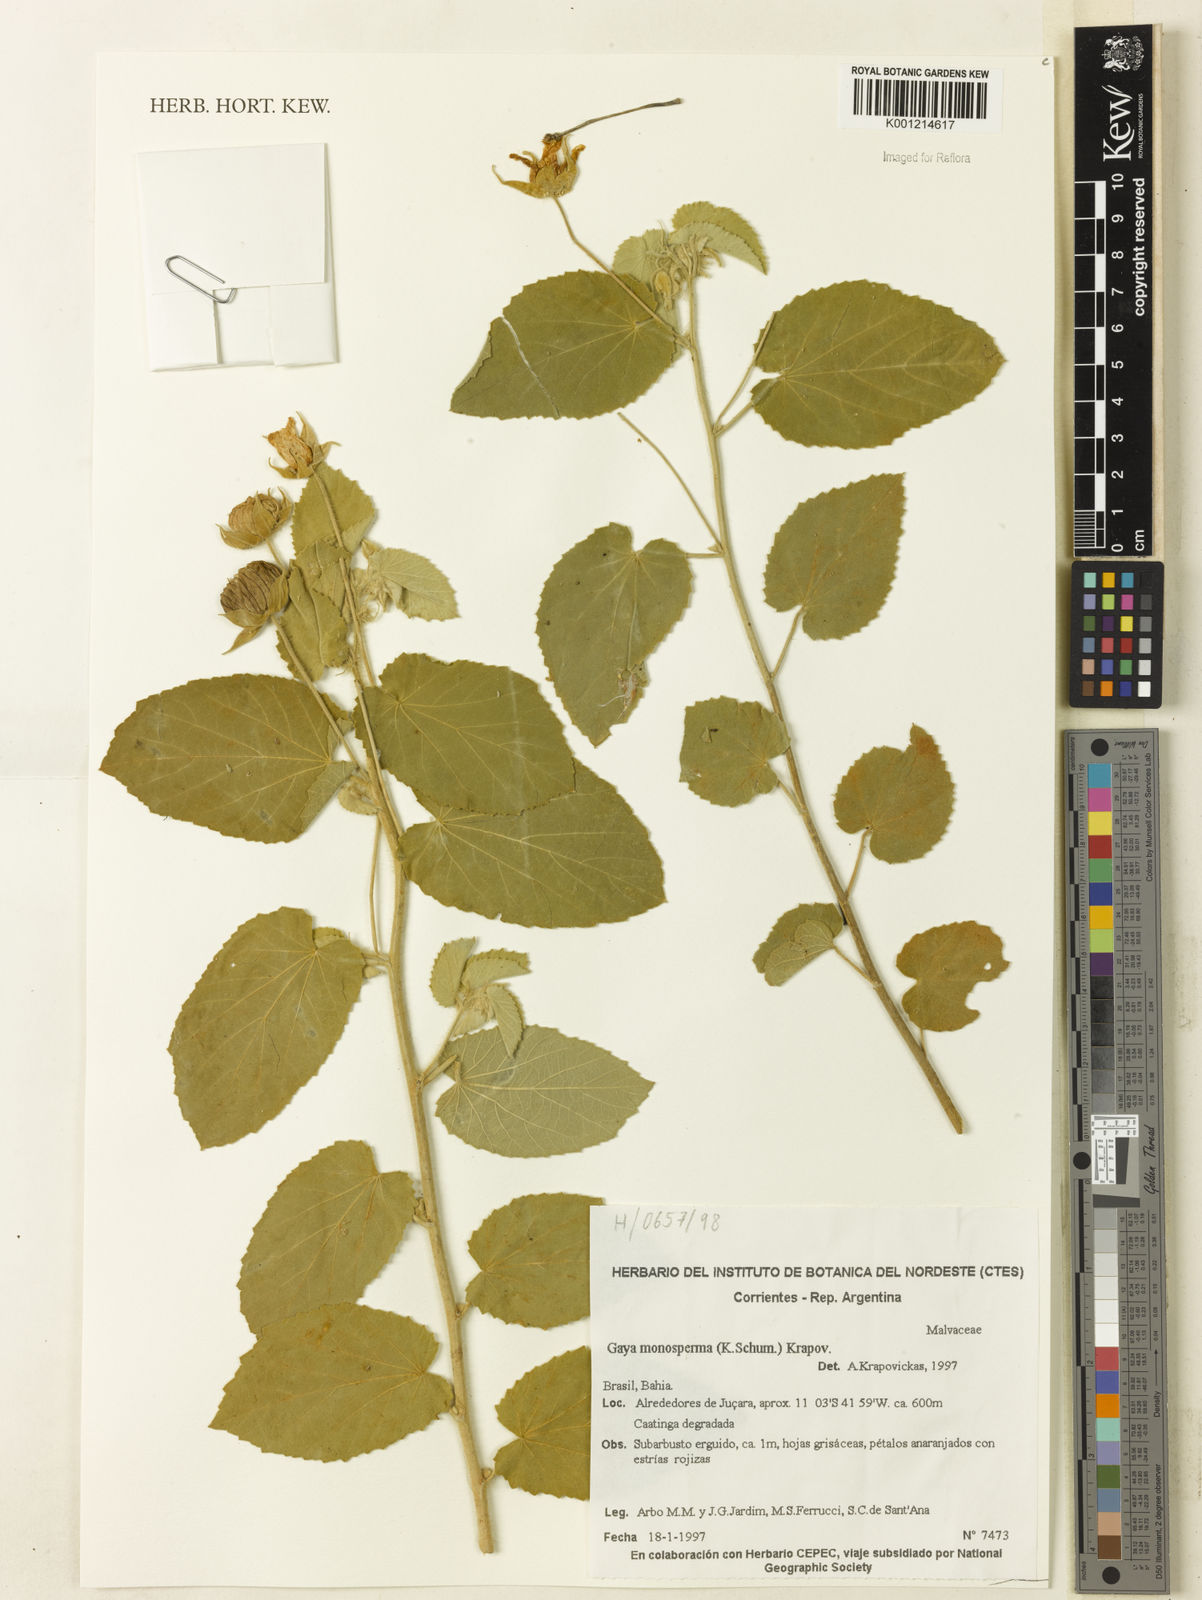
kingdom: Plantae
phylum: Tracheophyta
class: Magnoliopsida
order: Malvales
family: Malvaceae
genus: Gaya
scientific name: Gaya monosperma
